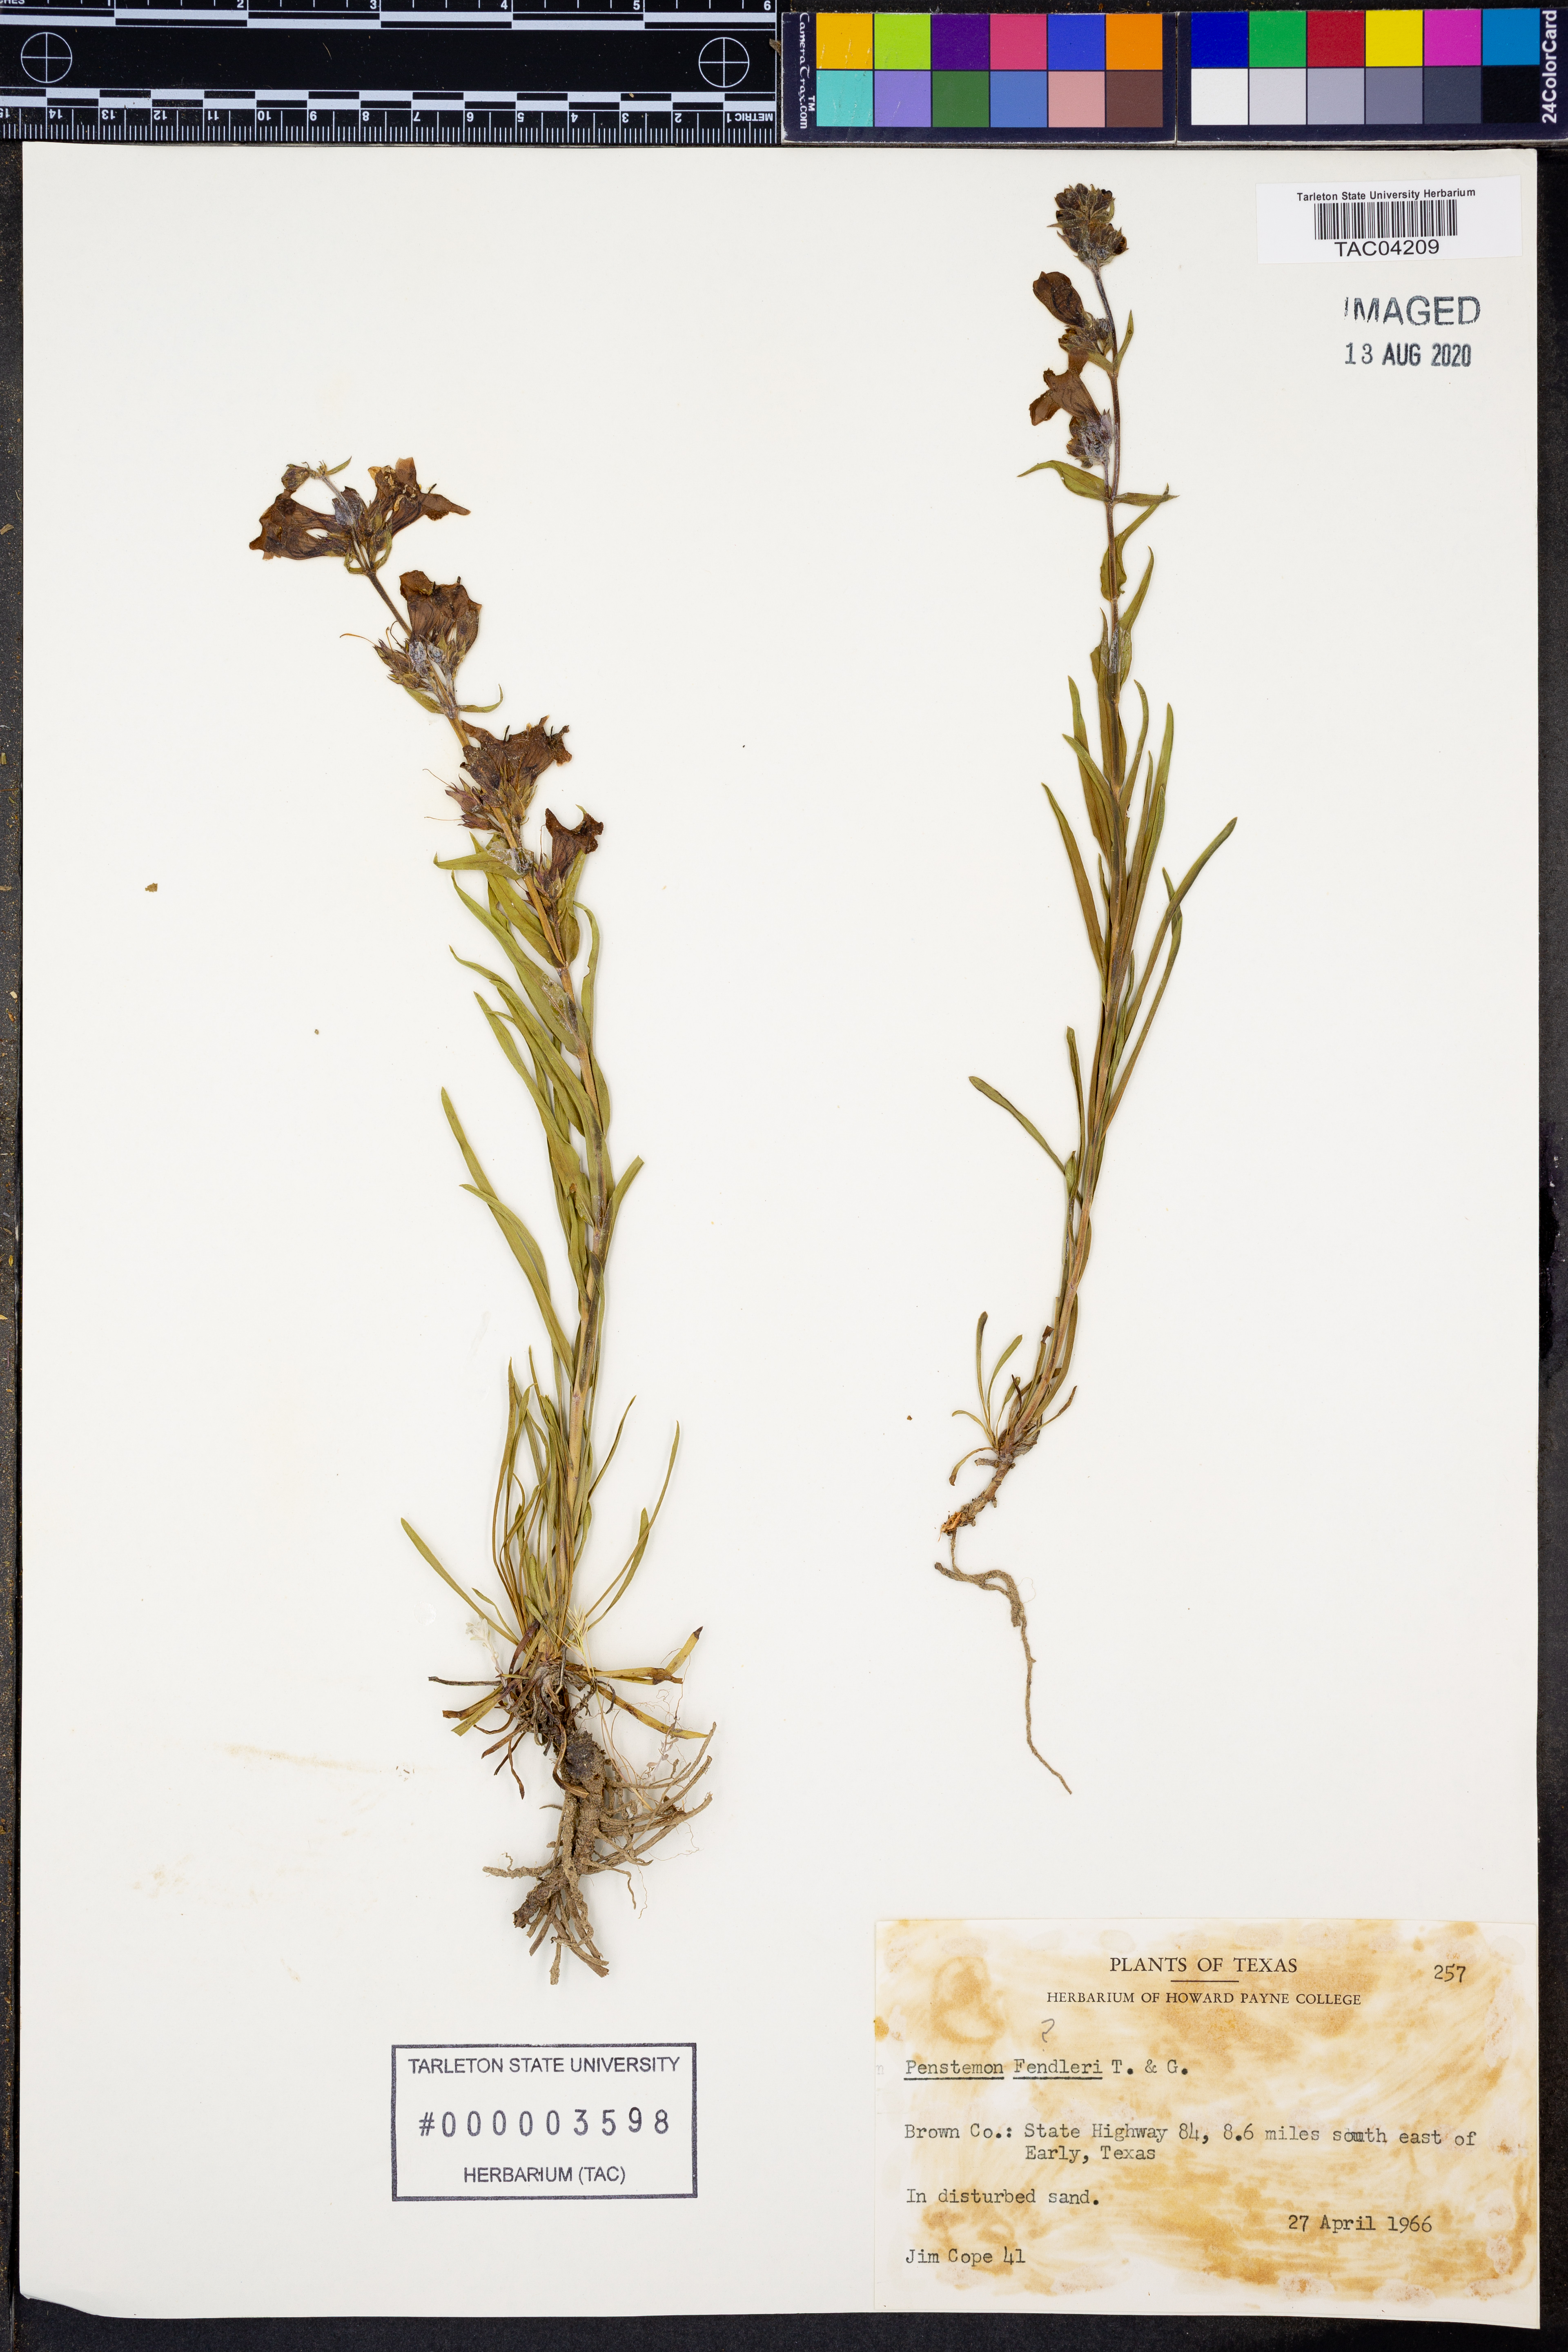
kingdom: Plantae
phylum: Tracheophyta
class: Magnoliopsida
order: Lamiales
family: Plantaginaceae
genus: Penstemon
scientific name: Penstemon fendleri
